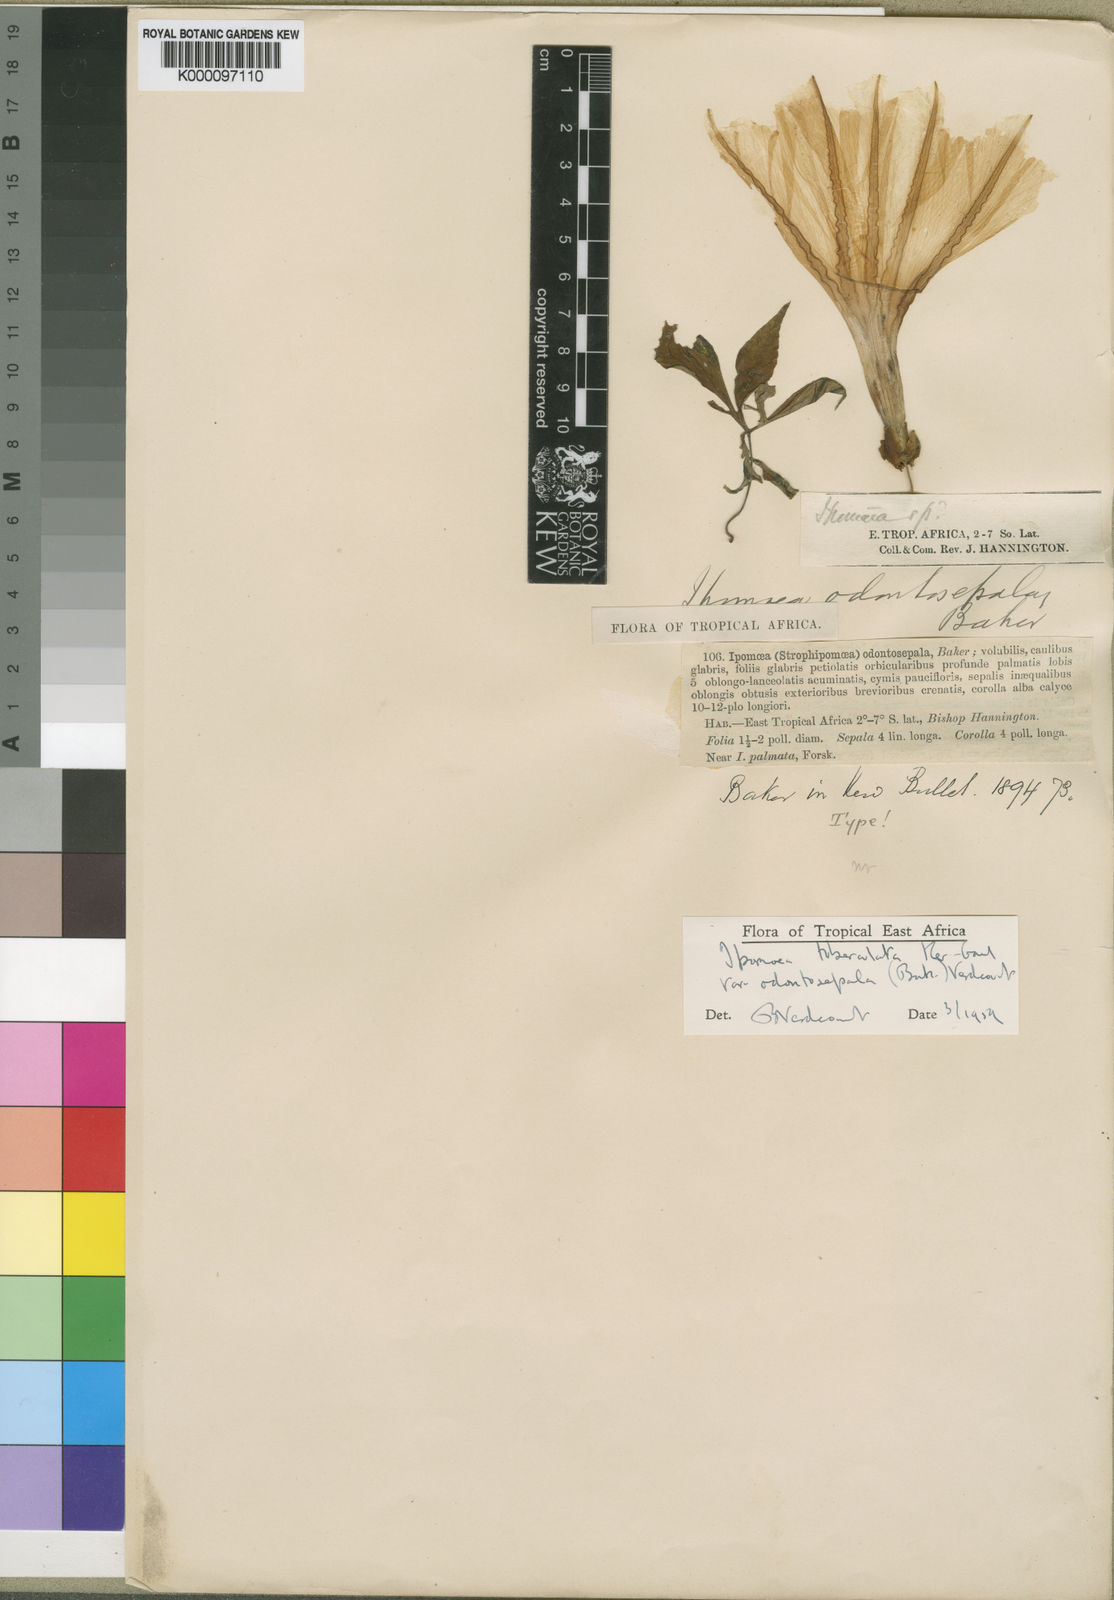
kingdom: Plantae
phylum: Tracheophyta
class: Magnoliopsida
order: Solanales
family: Convolvulaceae
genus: Ipomoea
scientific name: Ipomoea tuberculata
